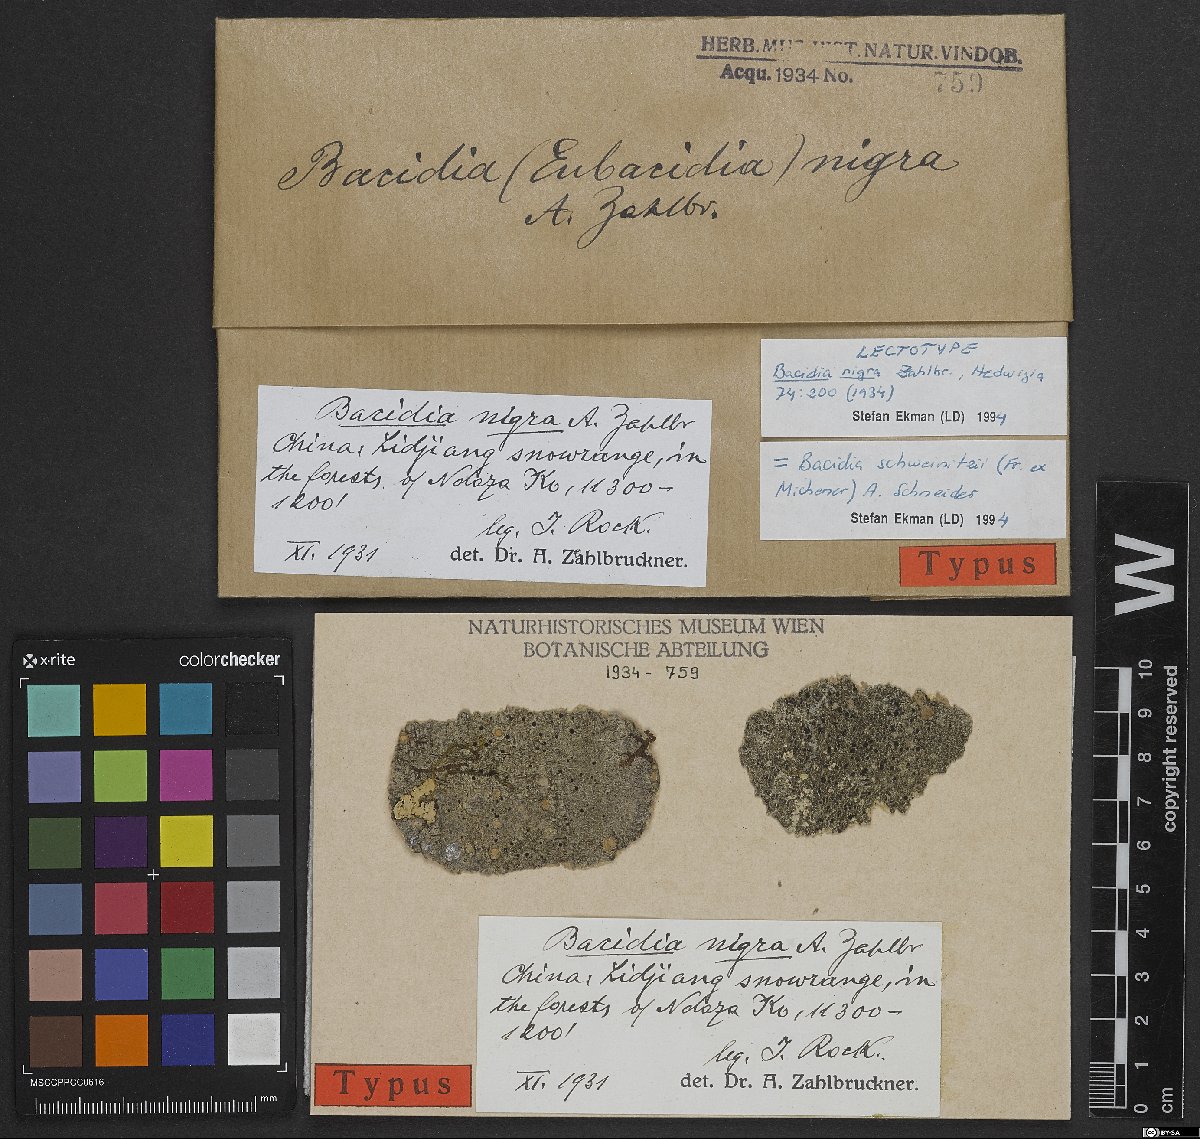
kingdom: Fungi
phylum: Ascomycota
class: Lecanoromycetes
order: Lecanorales
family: Ramalinaceae
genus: Bacidia
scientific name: Bacidia schweinitzii
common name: Surprise lichen
